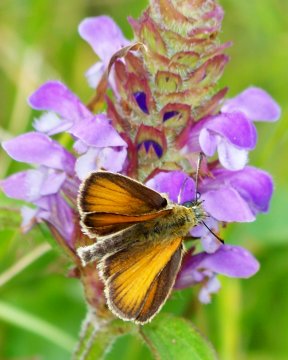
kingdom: Animalia
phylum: Arthropoda
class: Insecta
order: Lepidoptera
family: Hesperiidae
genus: Thymelicus
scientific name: Thymelicus lineola
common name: European Skipper
